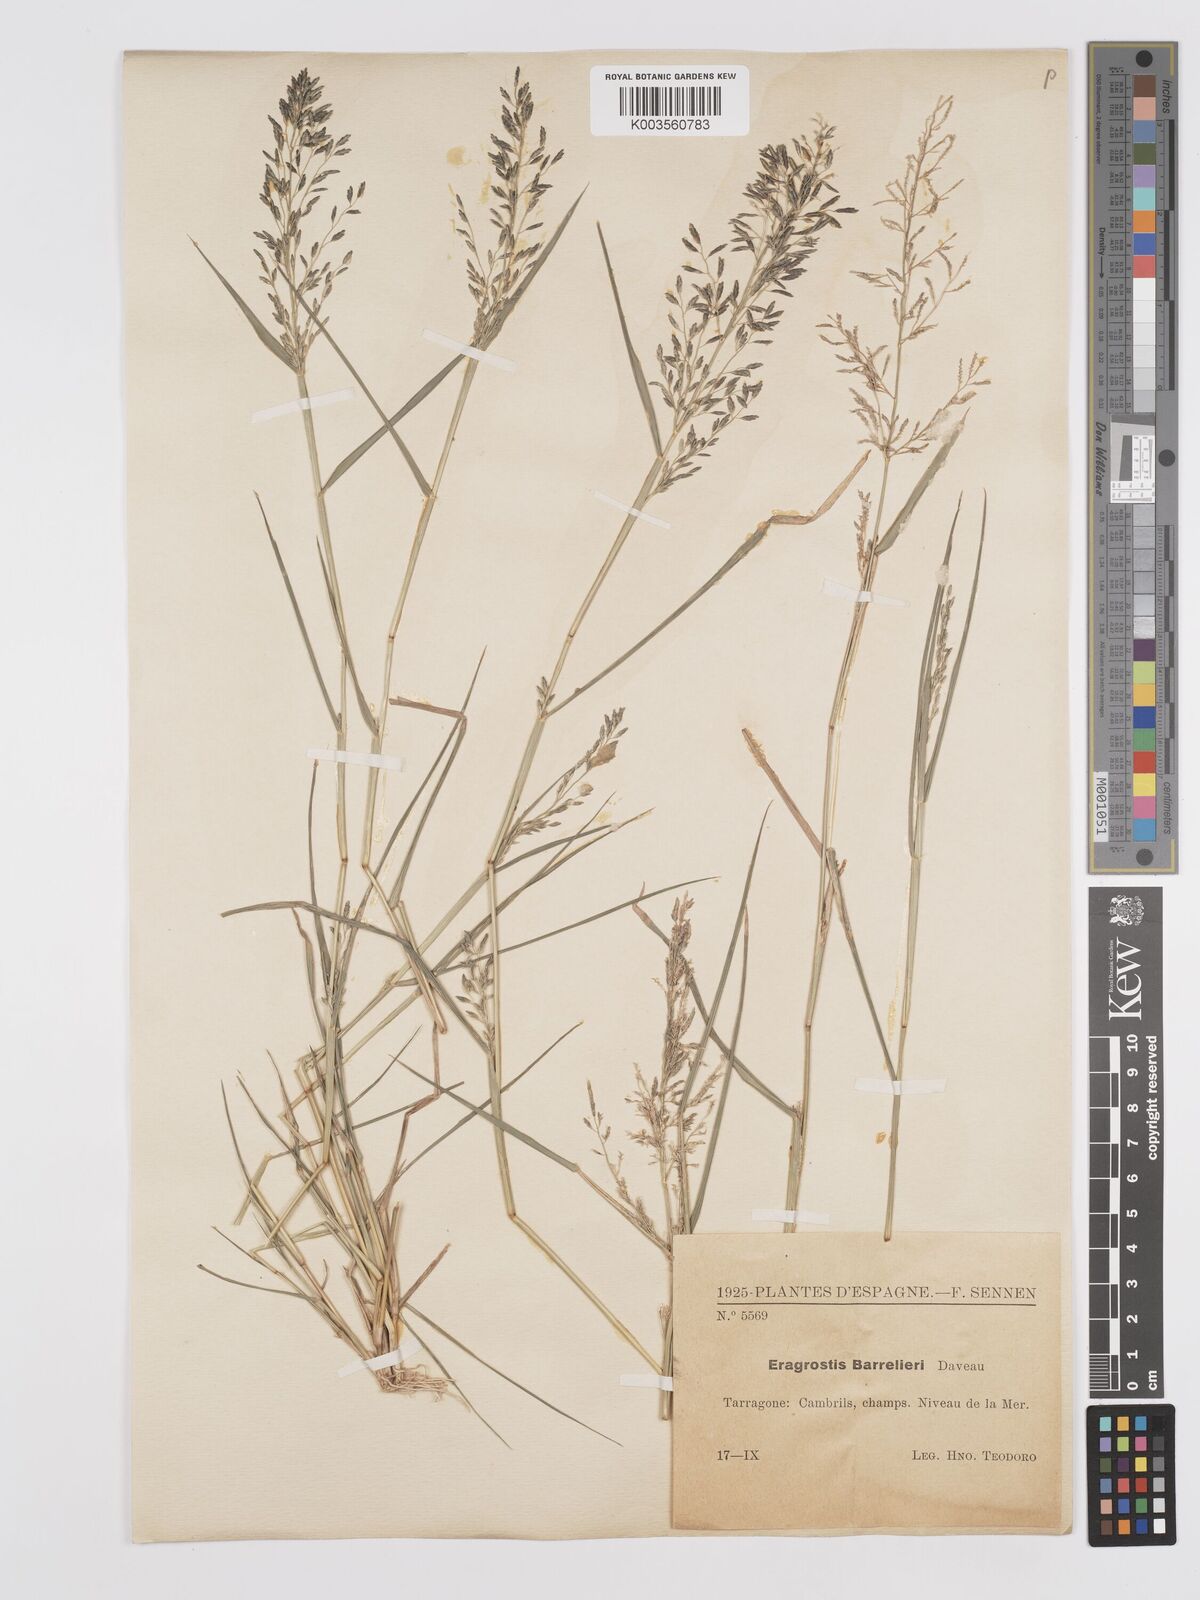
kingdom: Plantae
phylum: Tracheophyta
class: Liliopsida
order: Poales
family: Poaceae
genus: Eragrostis
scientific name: Eragrostis barrelieri
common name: Mediterranean lovegrass
